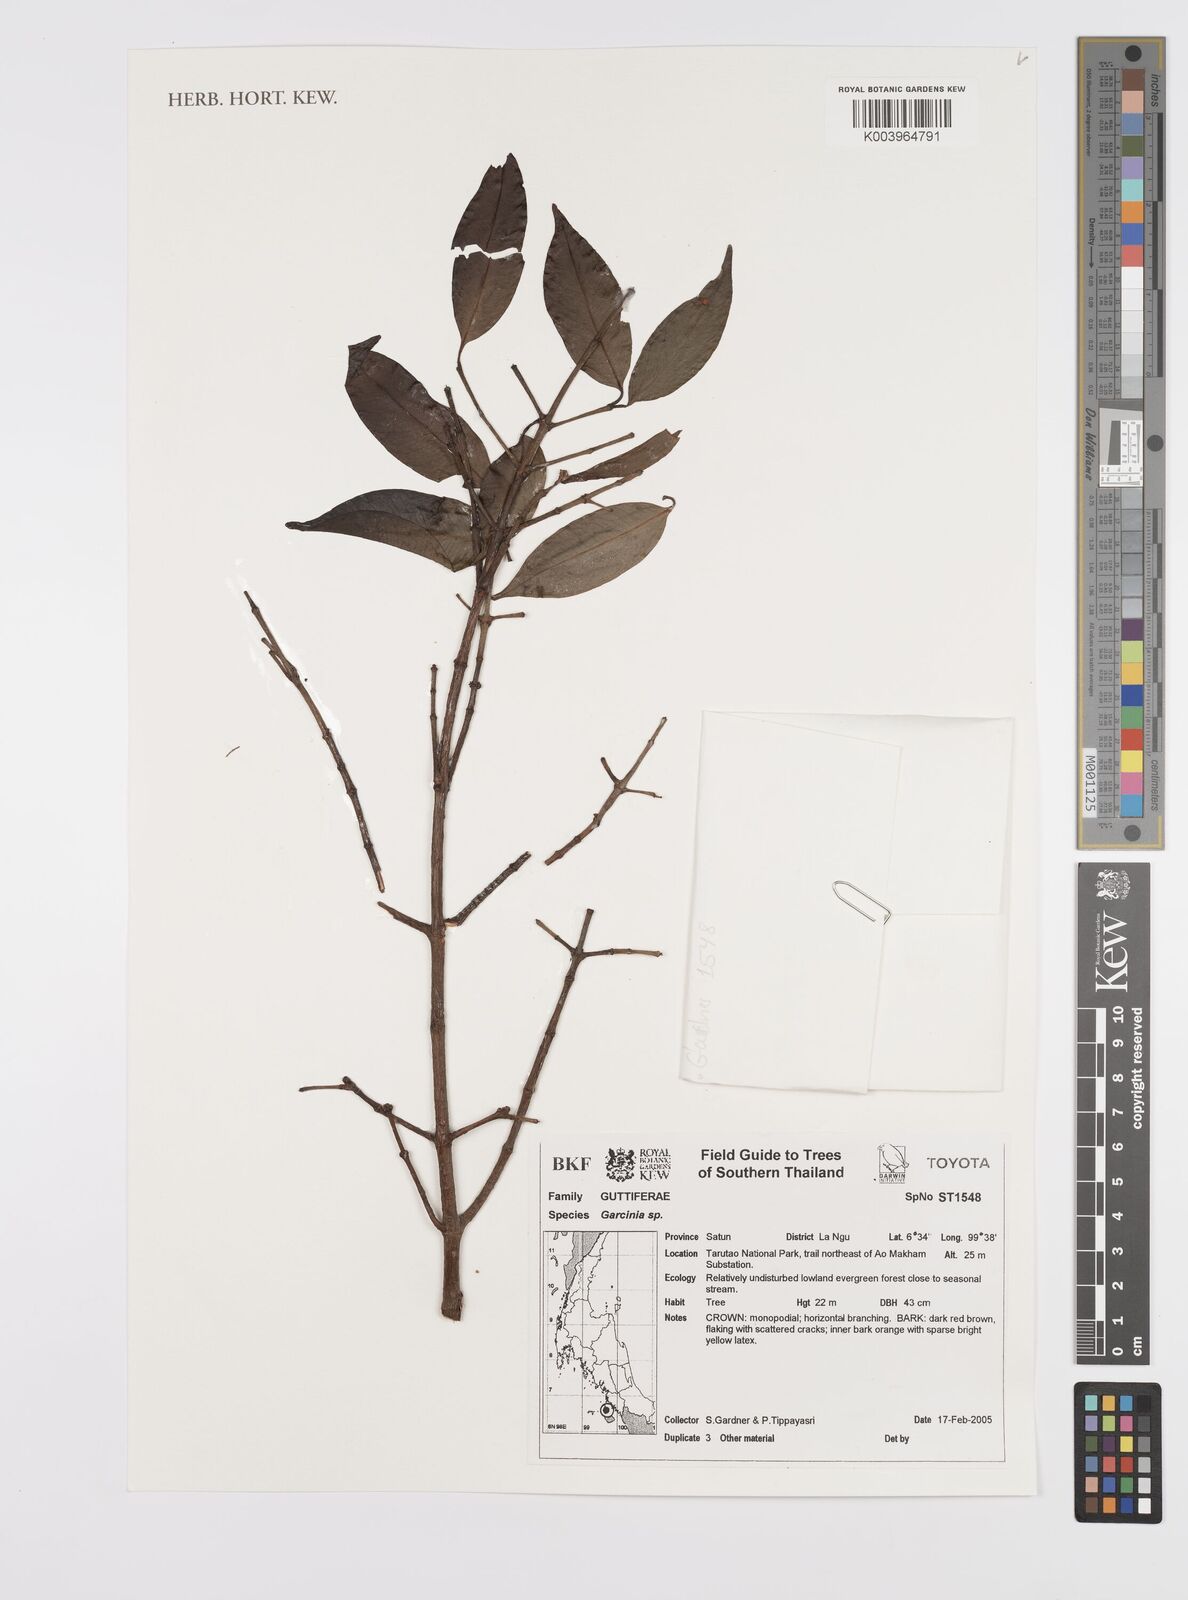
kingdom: Plantae
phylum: Tracheophyta
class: Magnoliopsida
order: Malpighiales
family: Clusiaceae
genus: Garcinia
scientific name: Garcinia celebica
